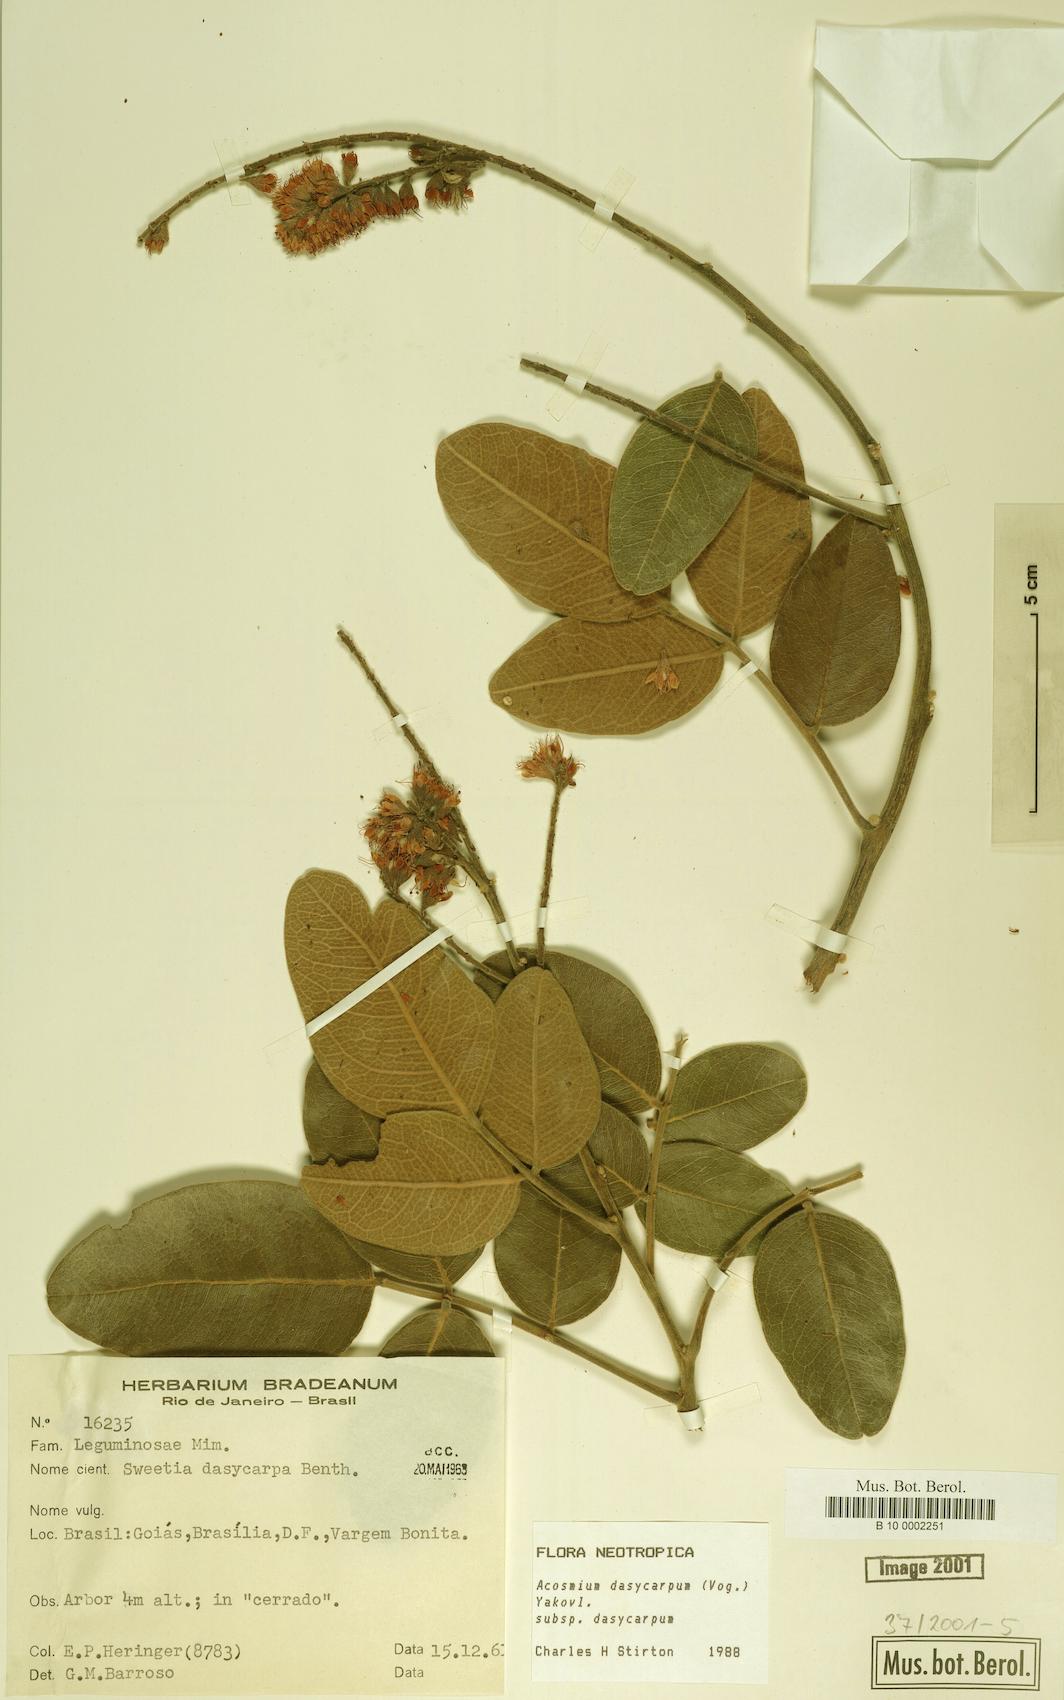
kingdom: Plantae
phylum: Tracheophyta
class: Magnoliopsida
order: Fabales
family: Fabaceae
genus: Leptolobium
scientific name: Leptolobium dasycarpum
